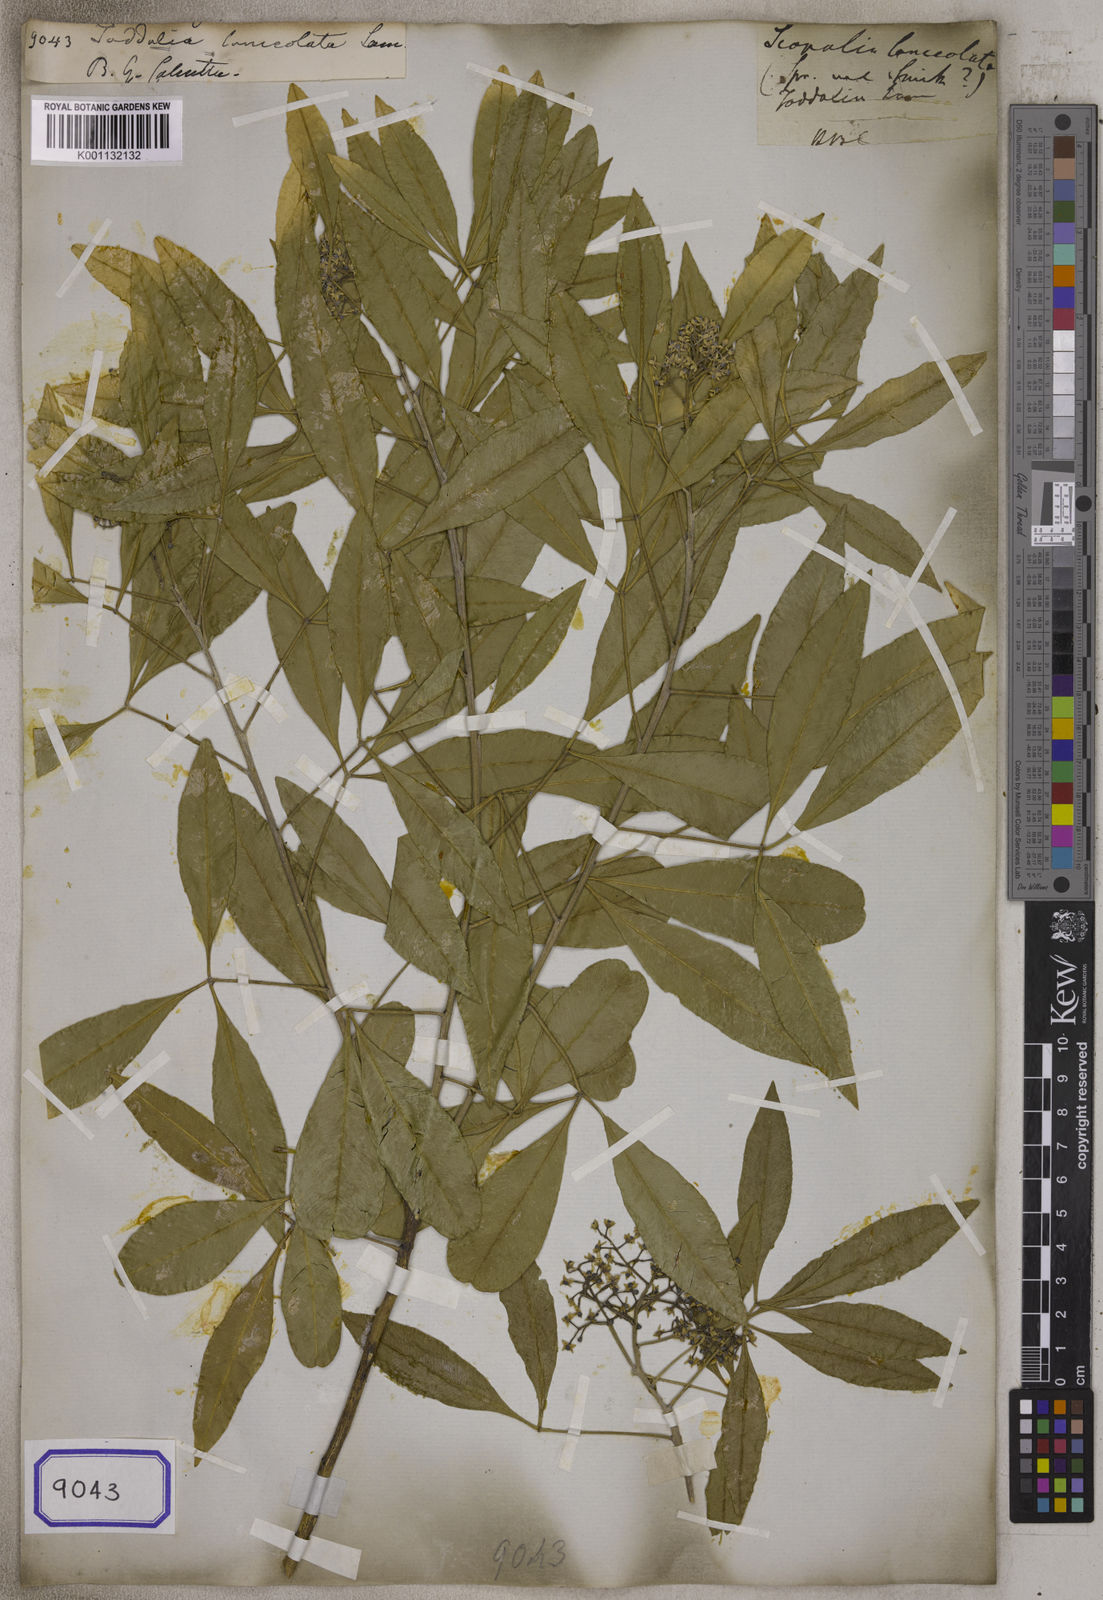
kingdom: Plantae
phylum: Tracheophyta
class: Magnoliopsida
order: Sapindales
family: Rutaceae
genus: Vepris
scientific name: Vepris lanceolata
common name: White ironwood
